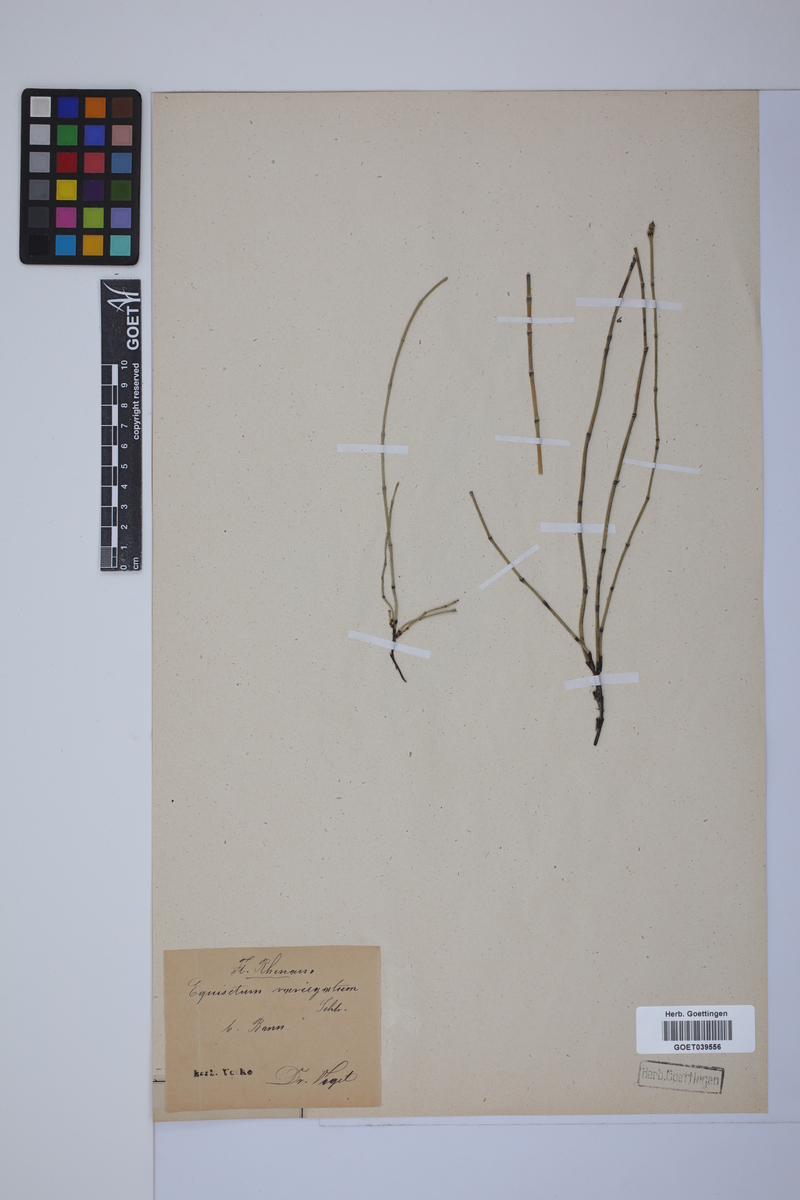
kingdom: Plantae
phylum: Tracheophyta
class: Polypodiopsida
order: Equisetales
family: Equisetaceae
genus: Equisetum
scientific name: Equisetum variegatum
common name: Variegated horsetail
